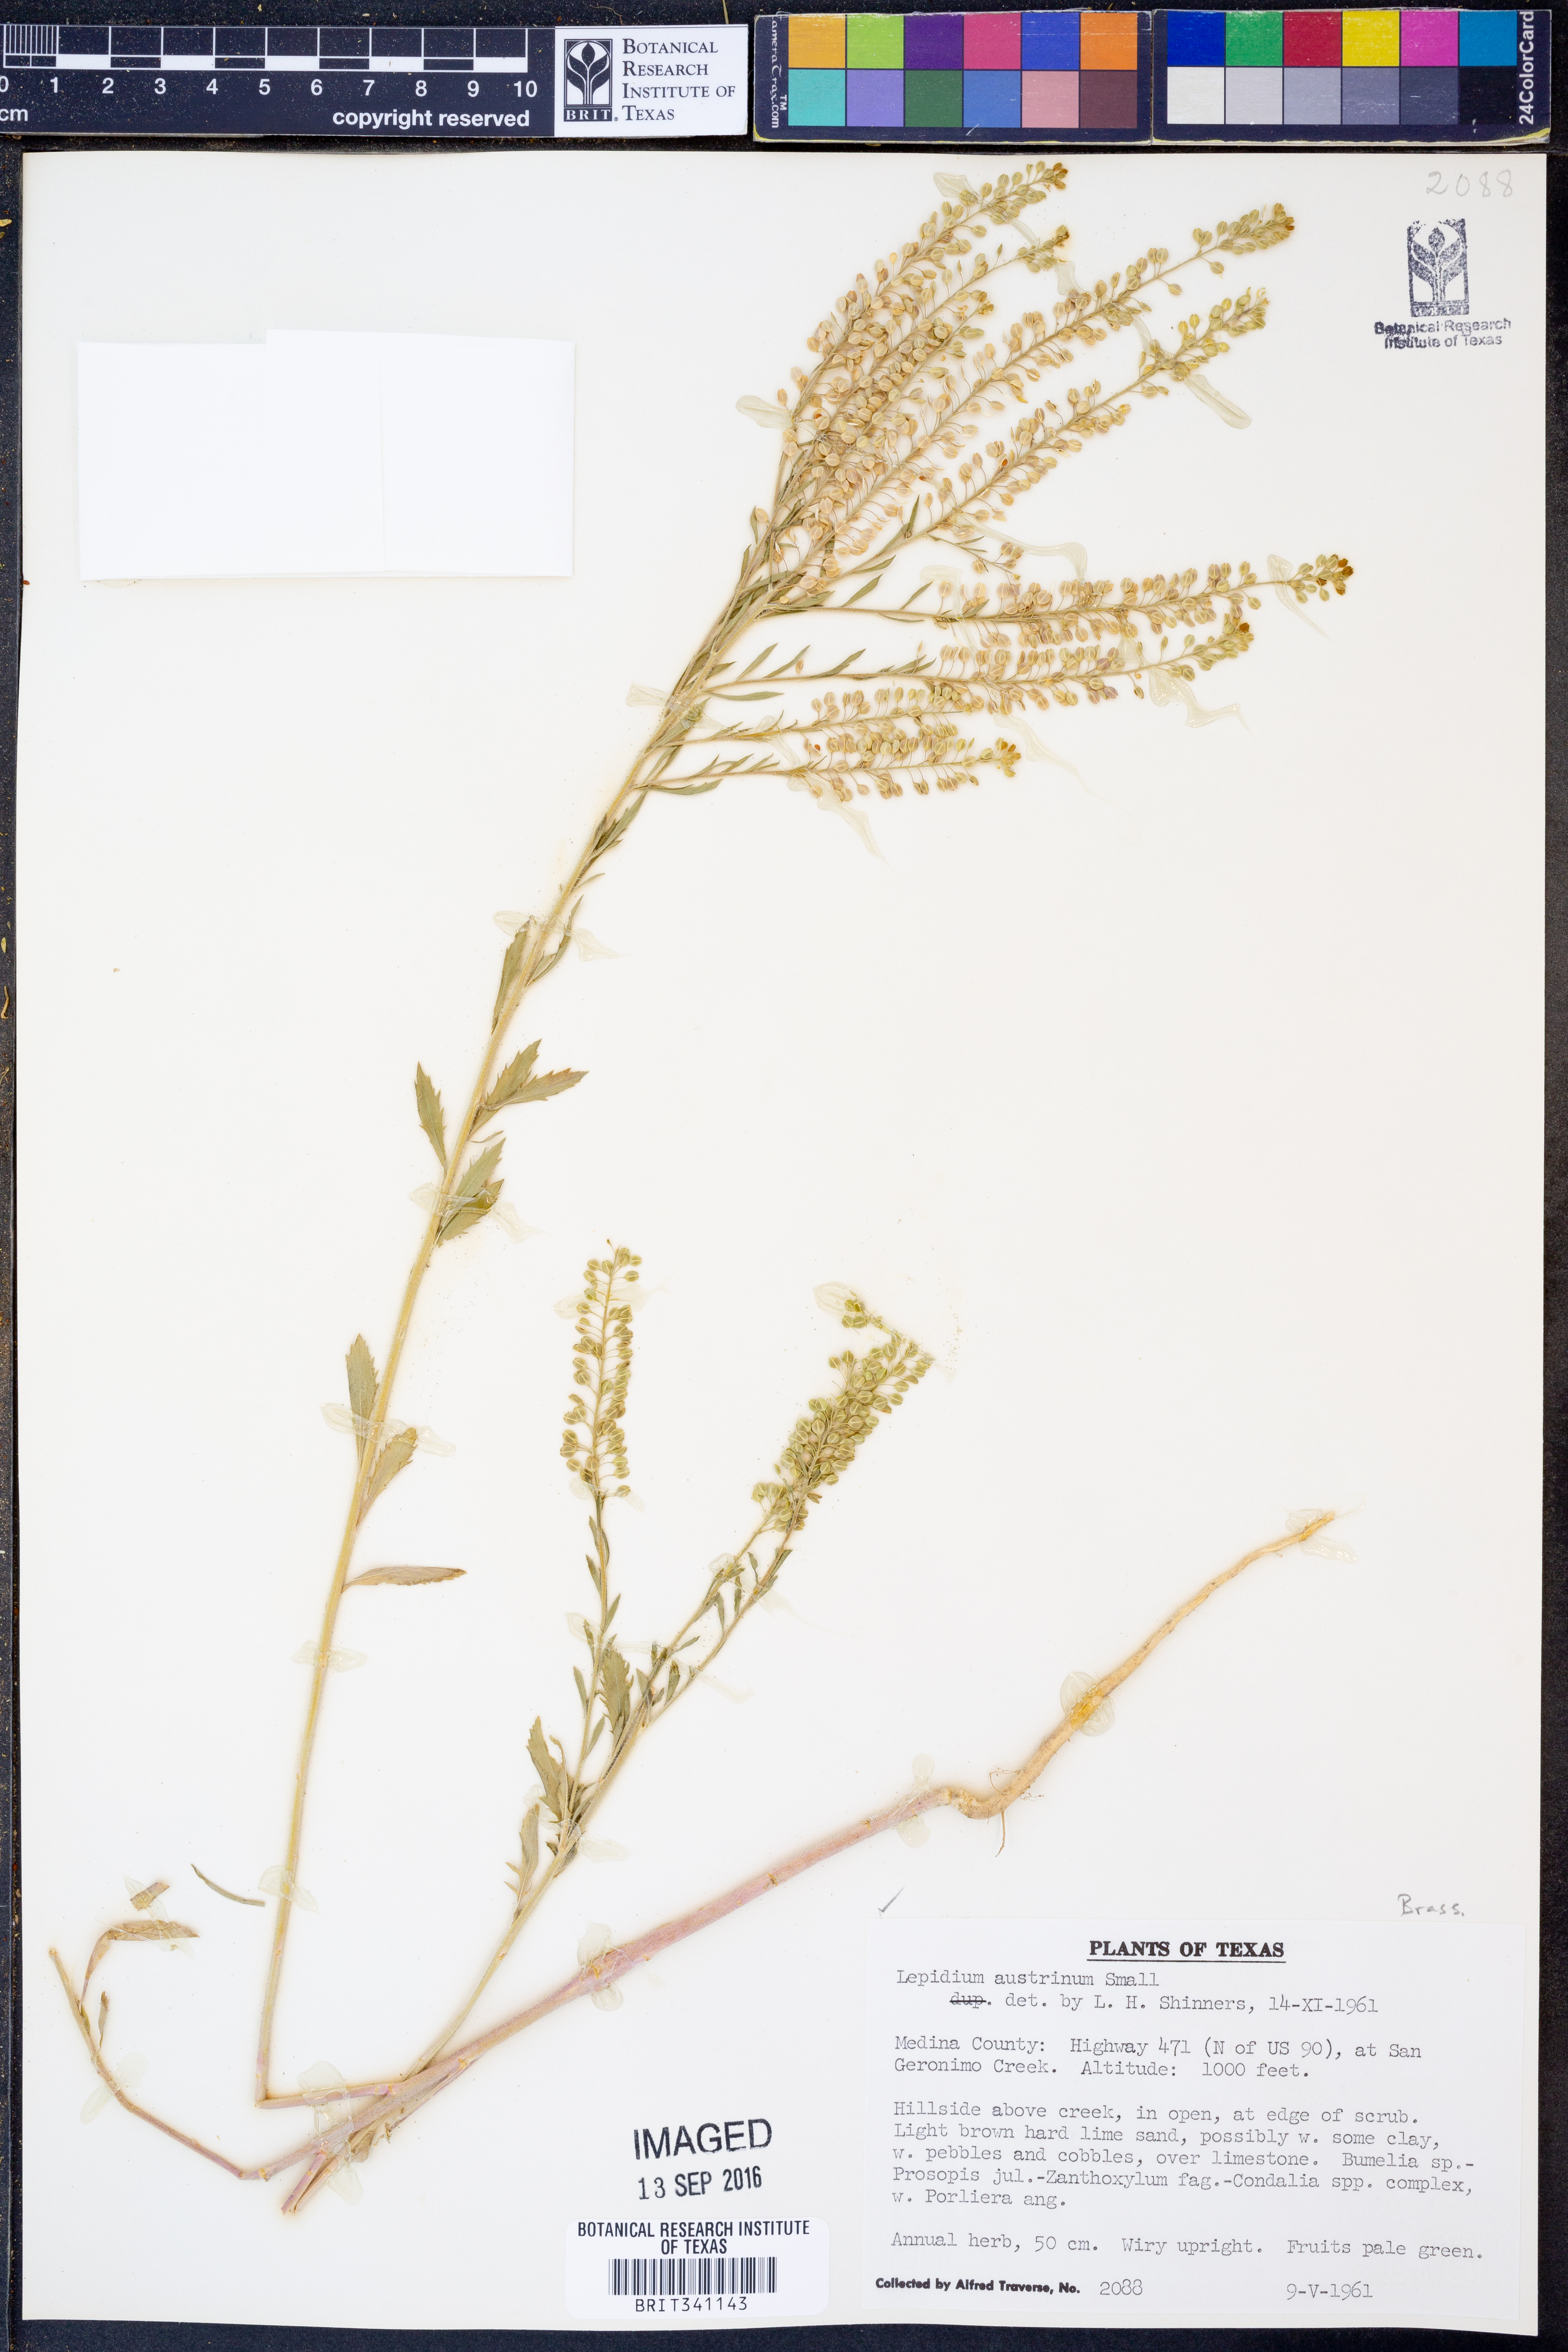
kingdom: Plantae
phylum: Tracheophyta
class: Magnoliopsida
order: Brassicales
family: Brassicaceae
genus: Lepidium
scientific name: Lepidium austrinum
